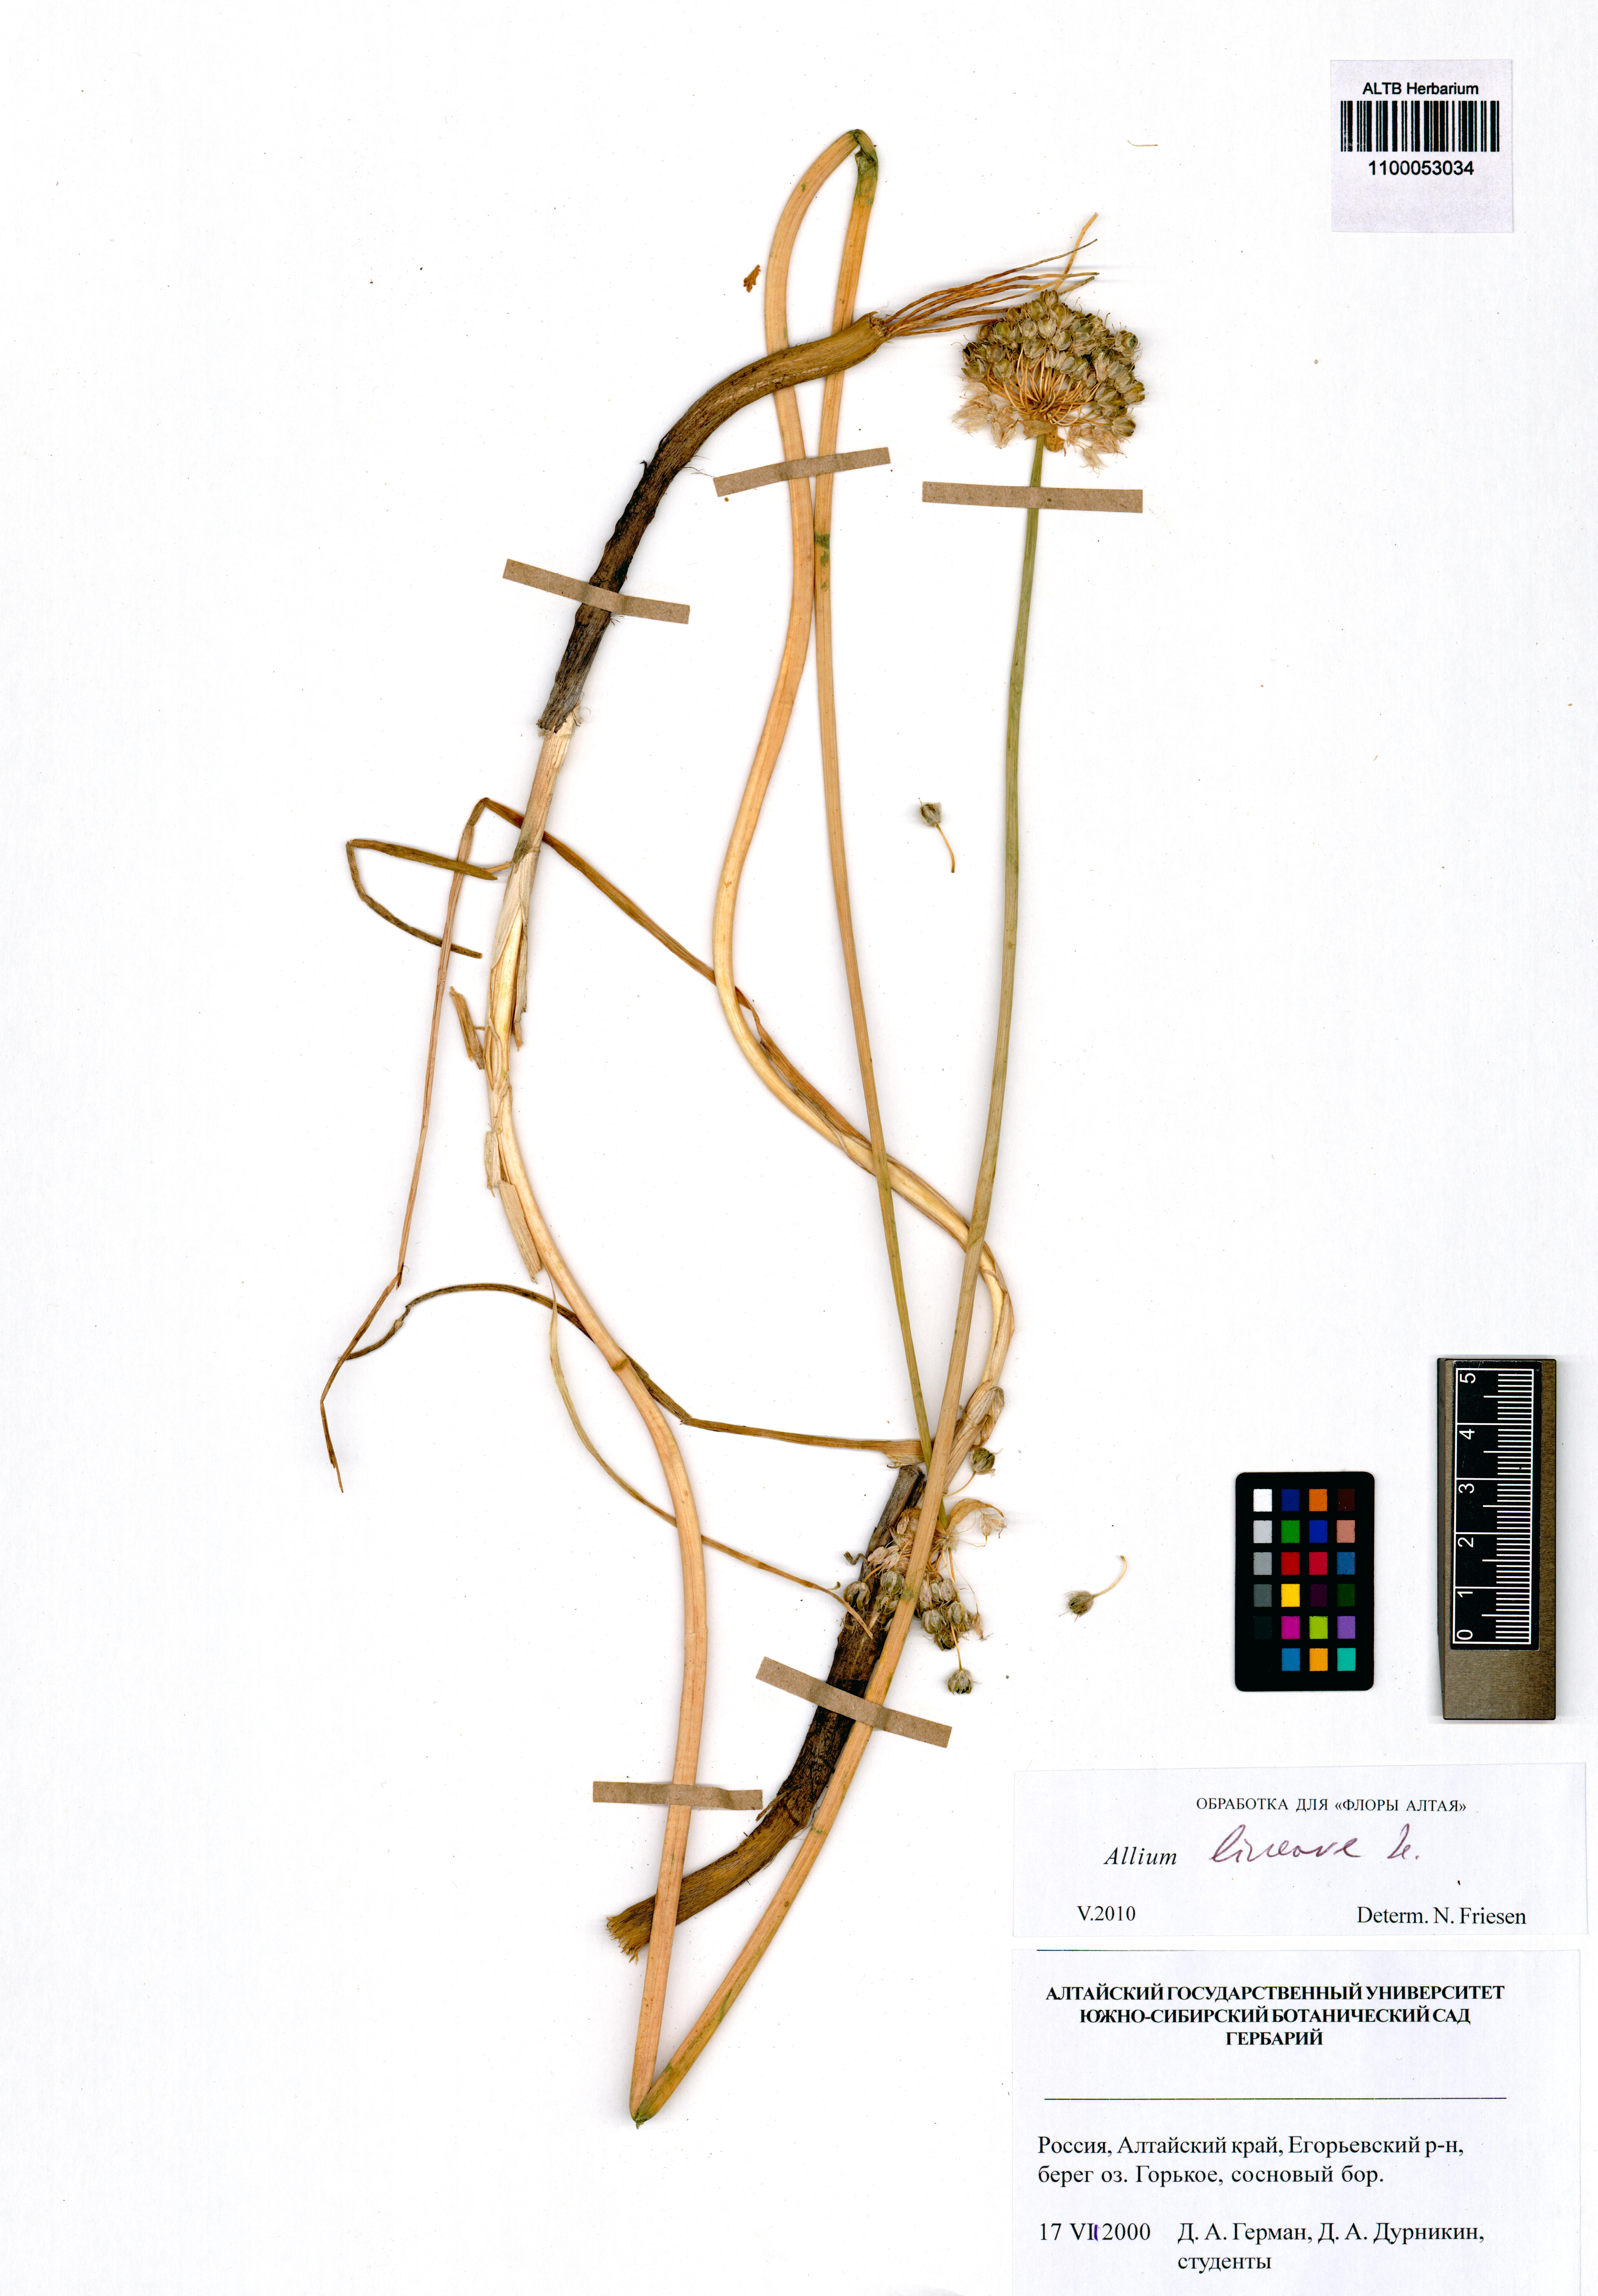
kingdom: Plantae
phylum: Tracheophyta
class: Liliopsida
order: Asparagales
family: Amaryllidaceae
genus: Allium
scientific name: Allium lineare
